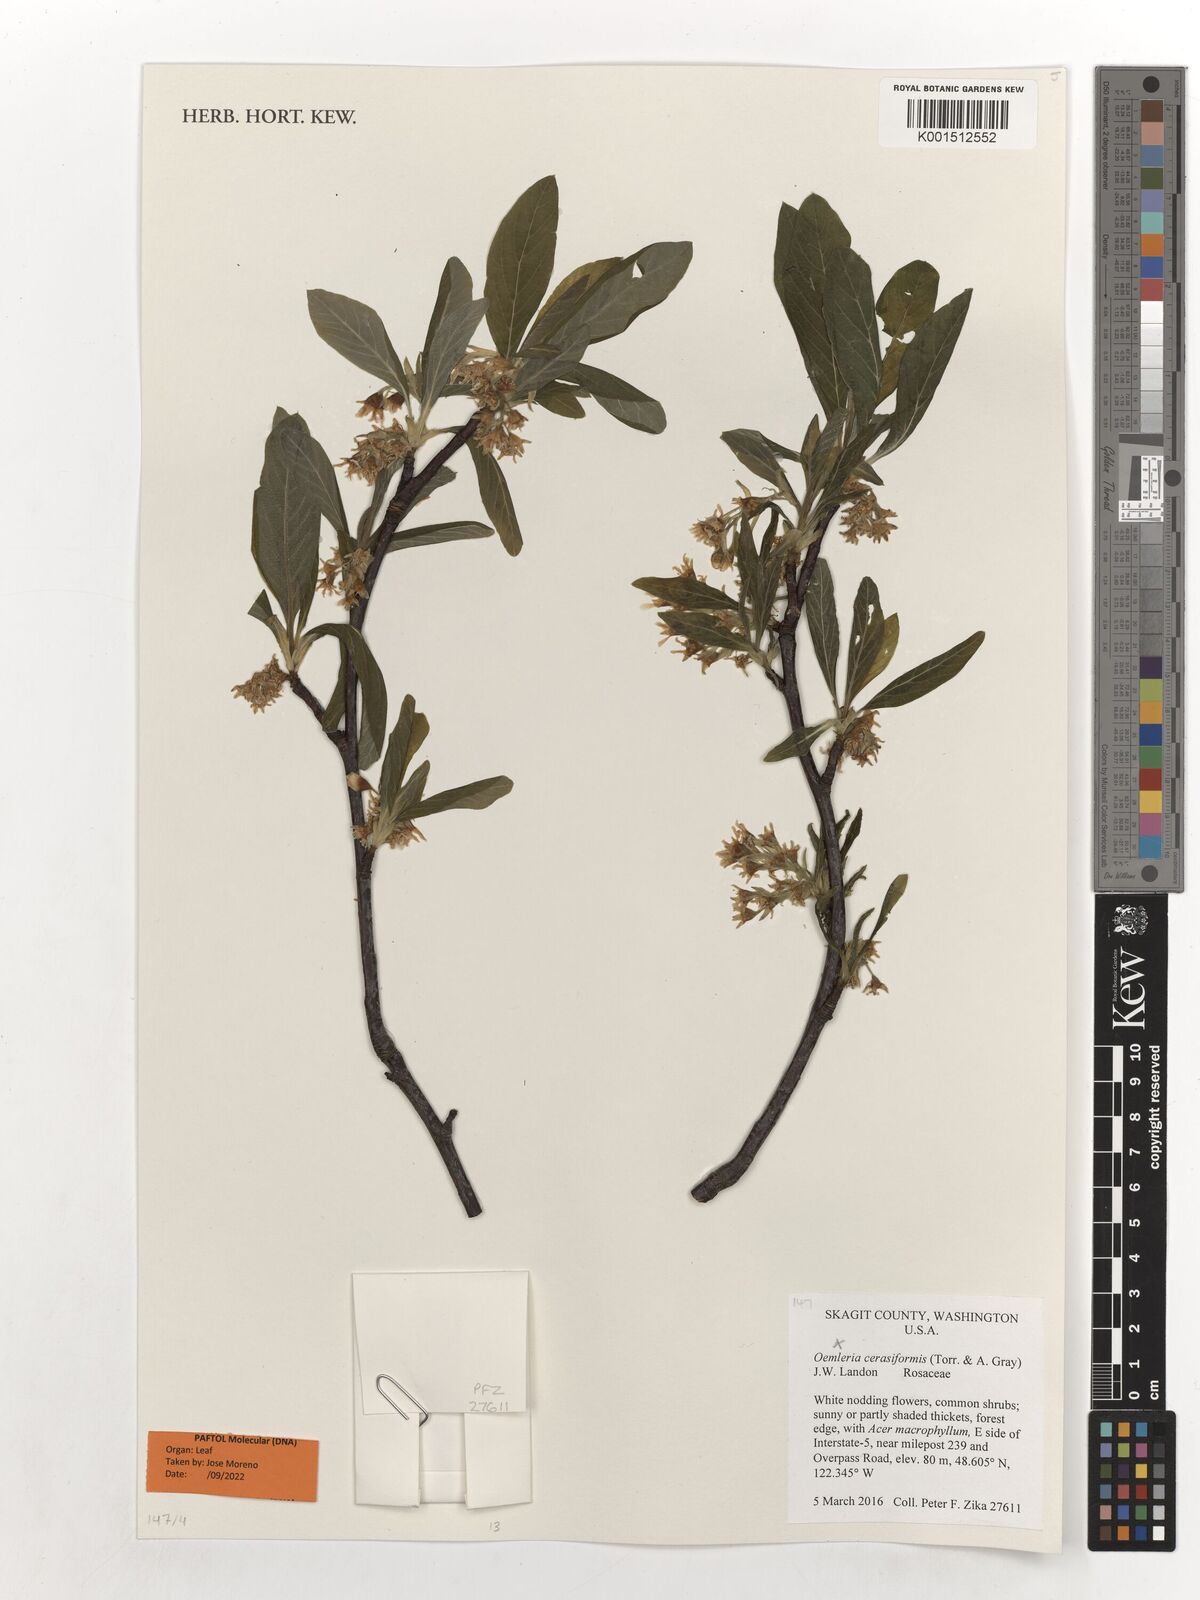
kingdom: Plantae
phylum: Tracheophyta
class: Magnoliopsida
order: Rosales
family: Rosaceae
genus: Oemleria
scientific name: Oemleria cerasiformis
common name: Osoberry
